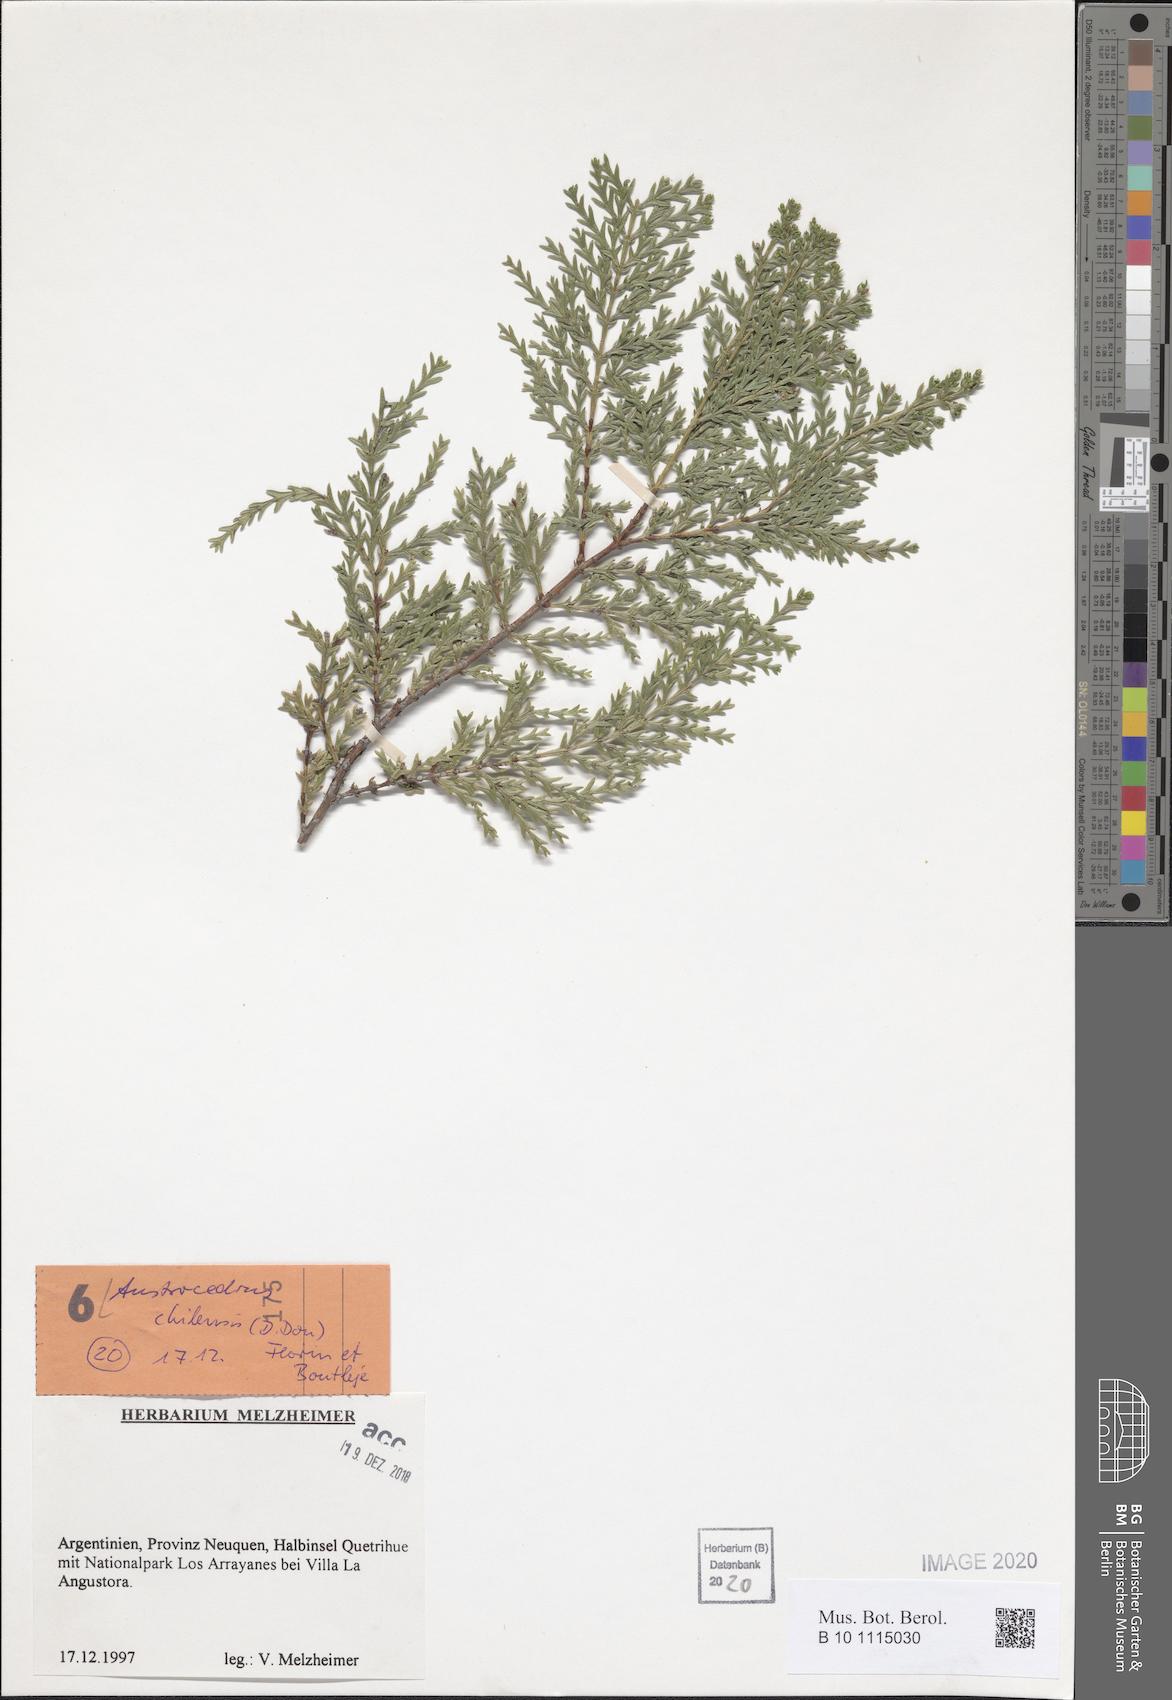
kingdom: Plantae
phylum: Tracheophyta
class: Pinopsida
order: Pinales
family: Cupressaceae
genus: Austrocedrus
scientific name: Austrocedrus chilensis
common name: Chilean incense-cedar
